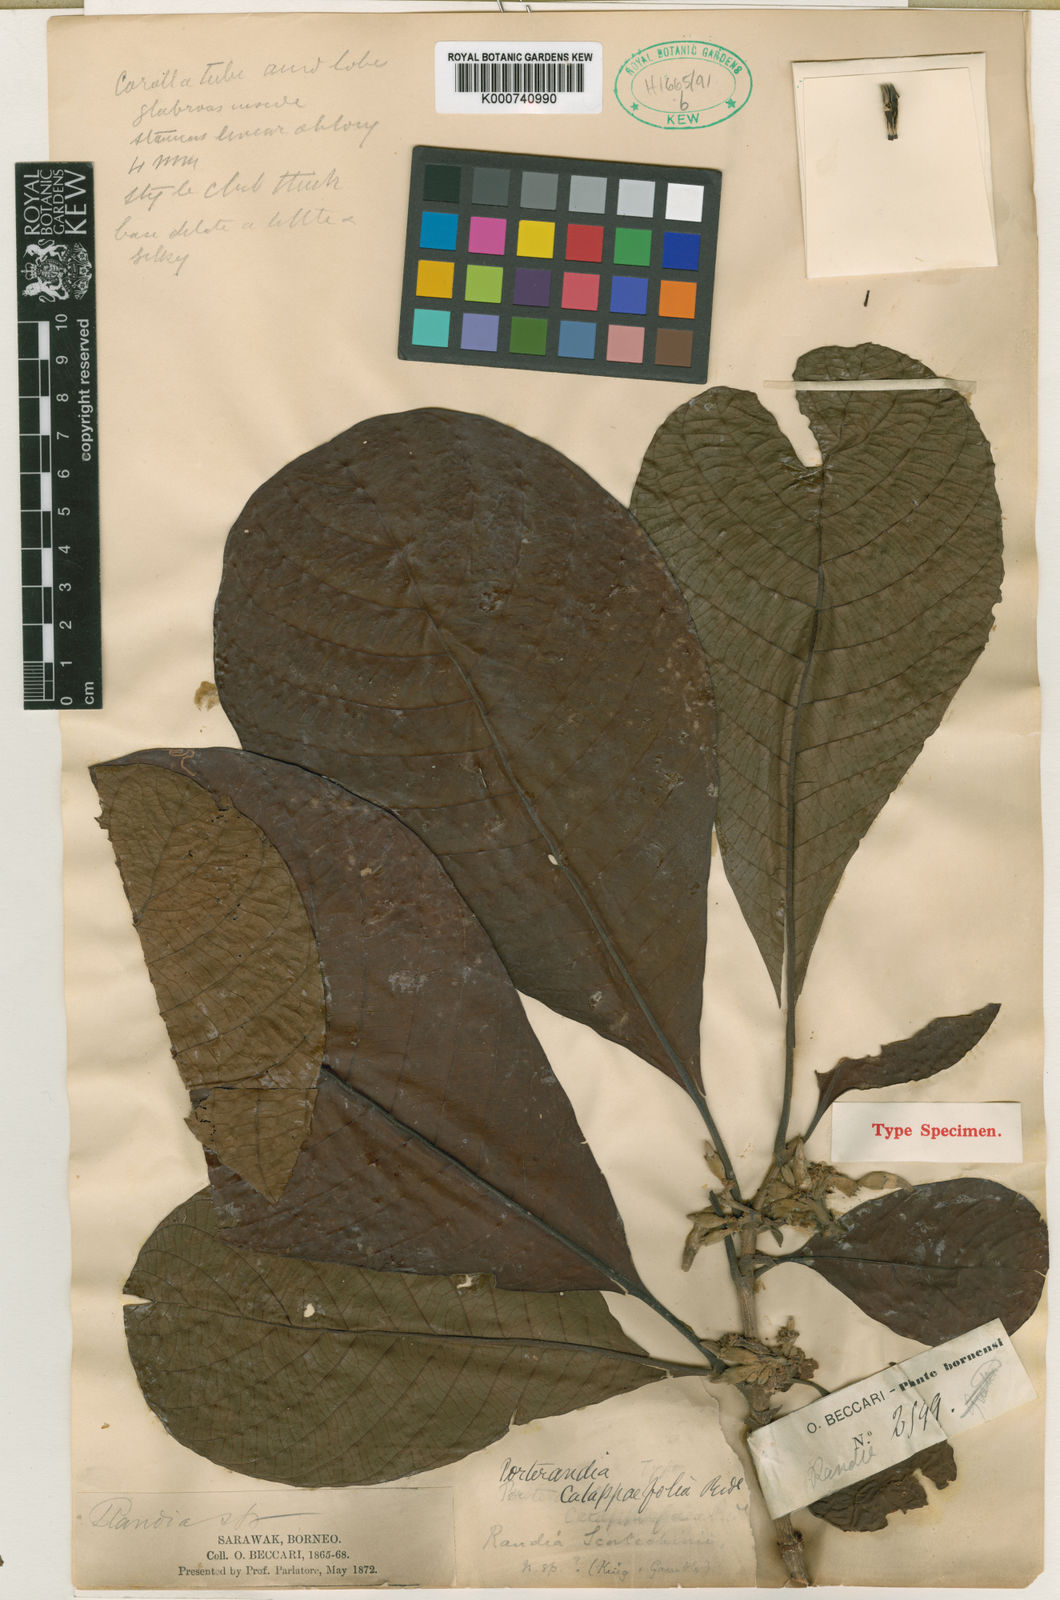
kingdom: Plantae
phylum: Tracheophyta
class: Magnoliopsida
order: Gentianales
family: Rubiaceae
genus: Porterandia
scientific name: Porterandia catappifolia
